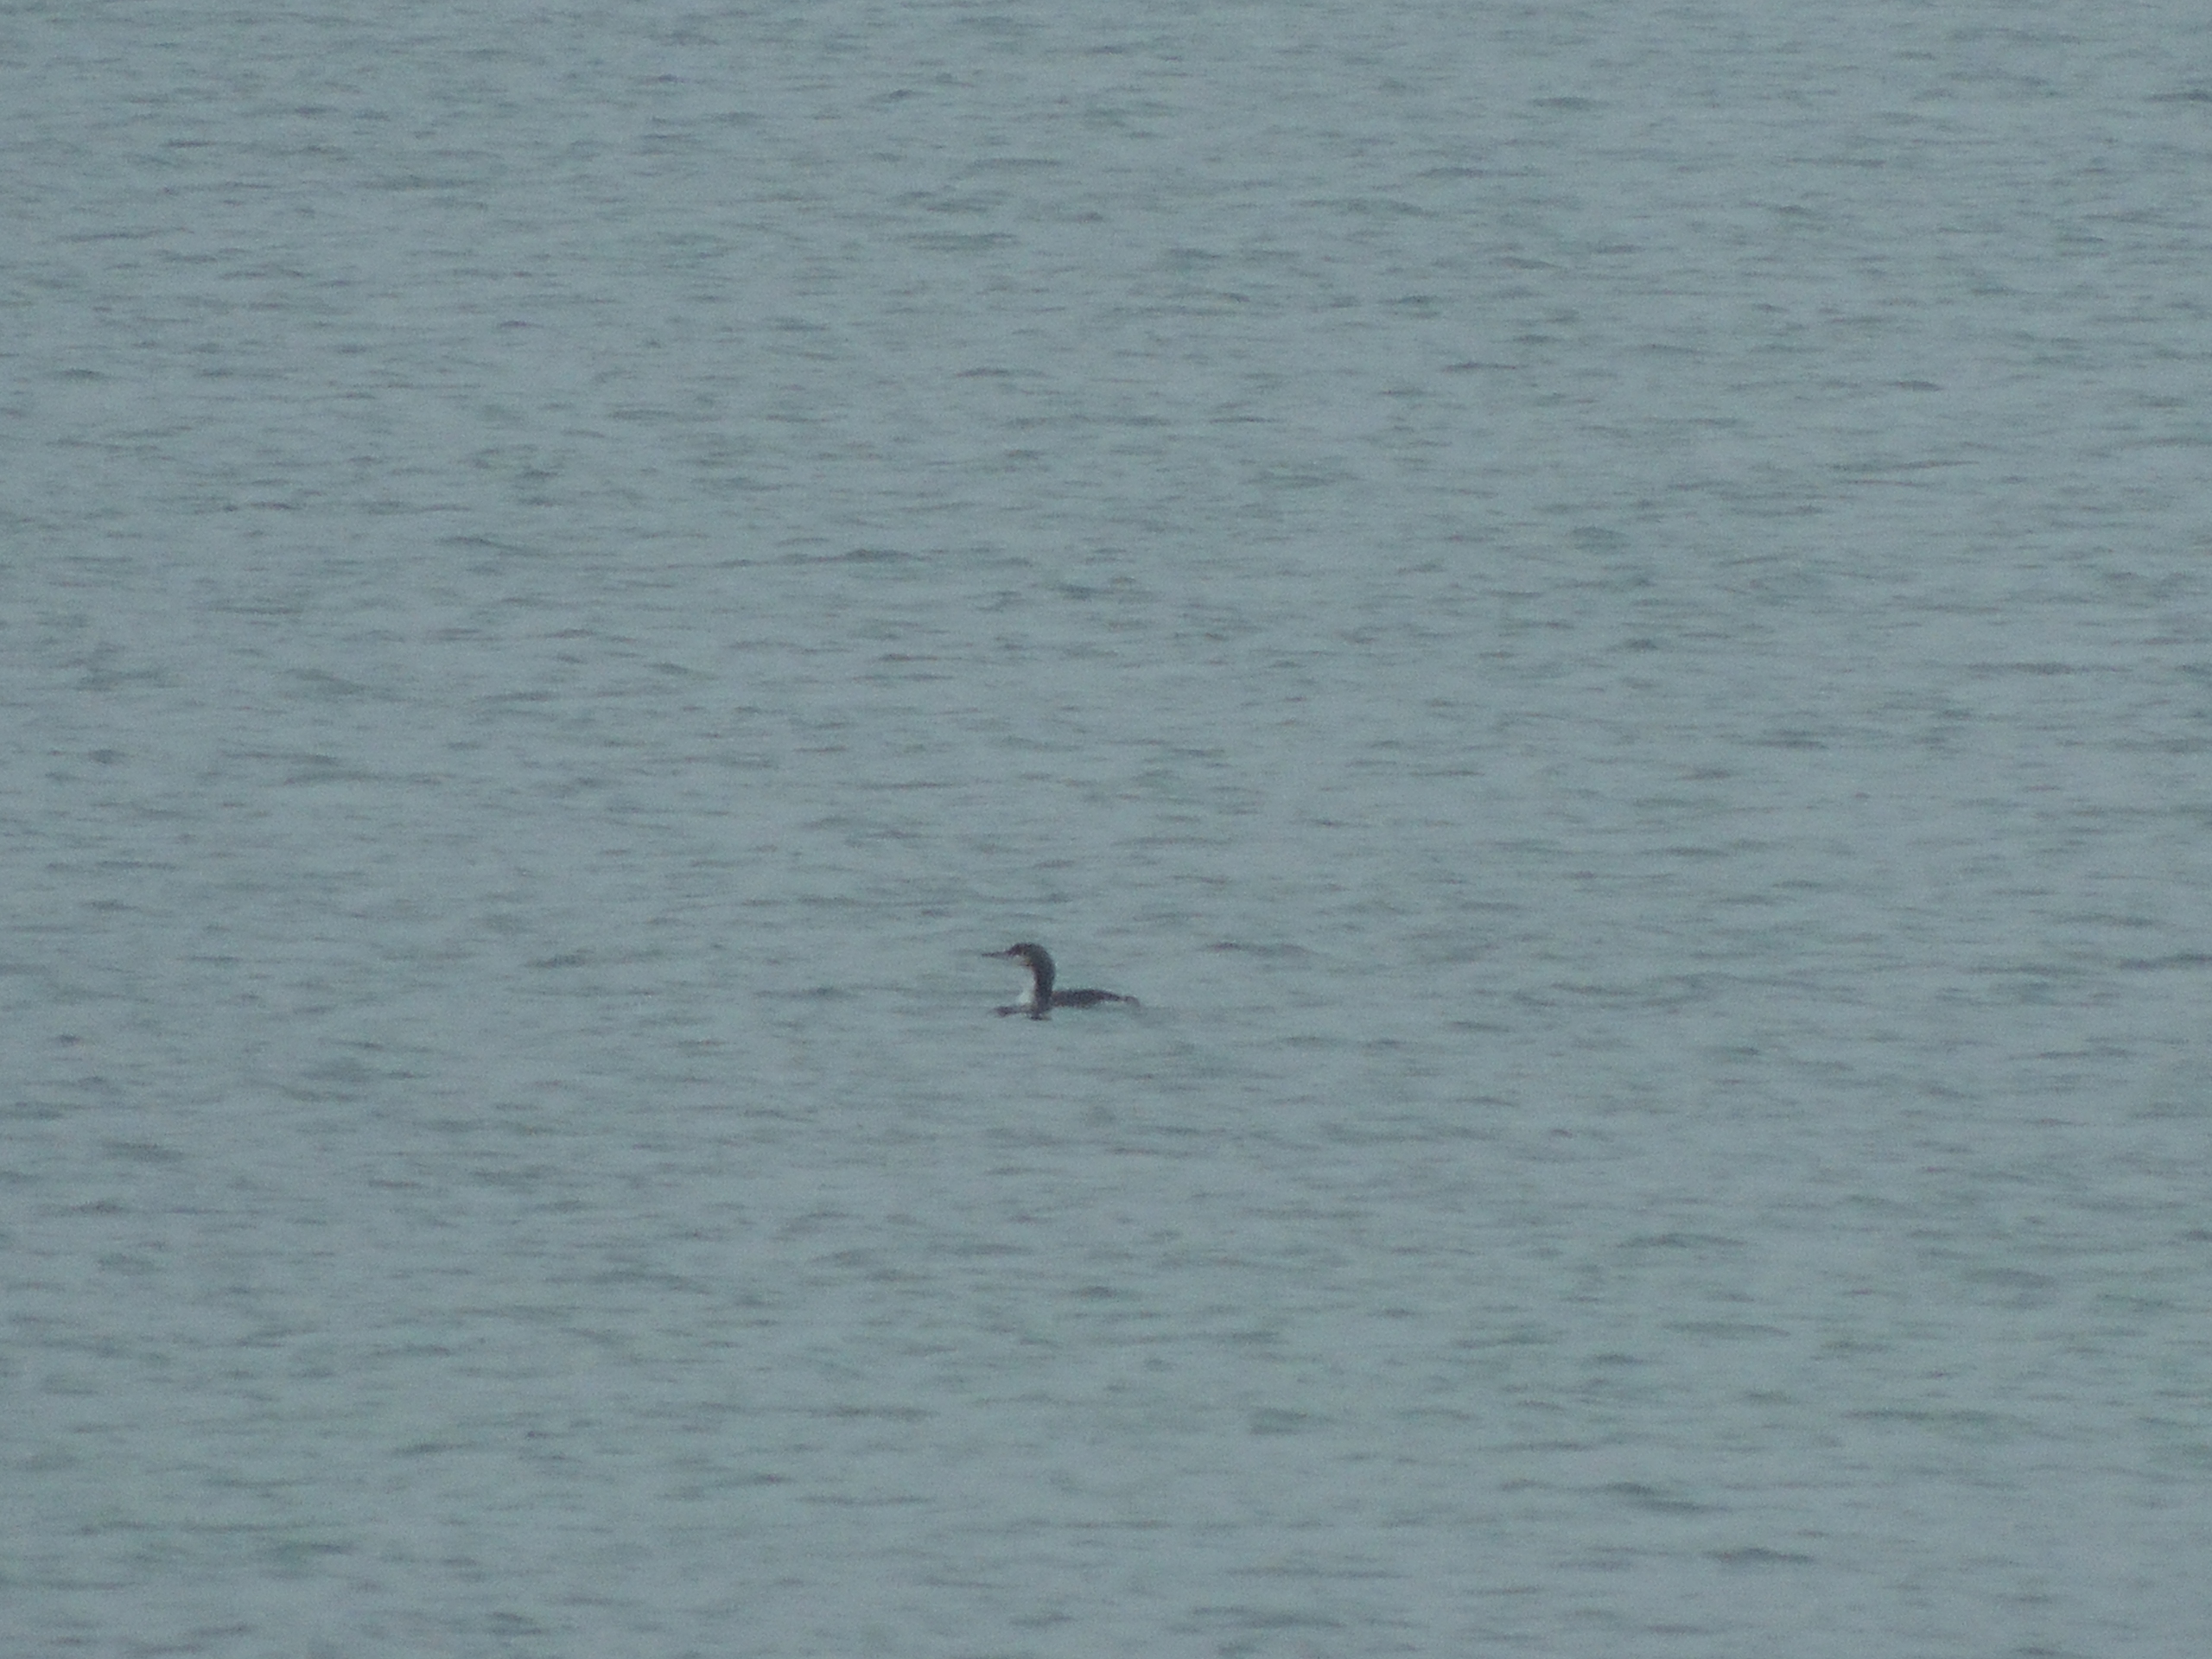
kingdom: Animalia
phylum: Chordata
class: Aves
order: Gaviiformes
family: Gaviidae
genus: Gavia
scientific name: Gavia arctica
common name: Sortstrubet lom
